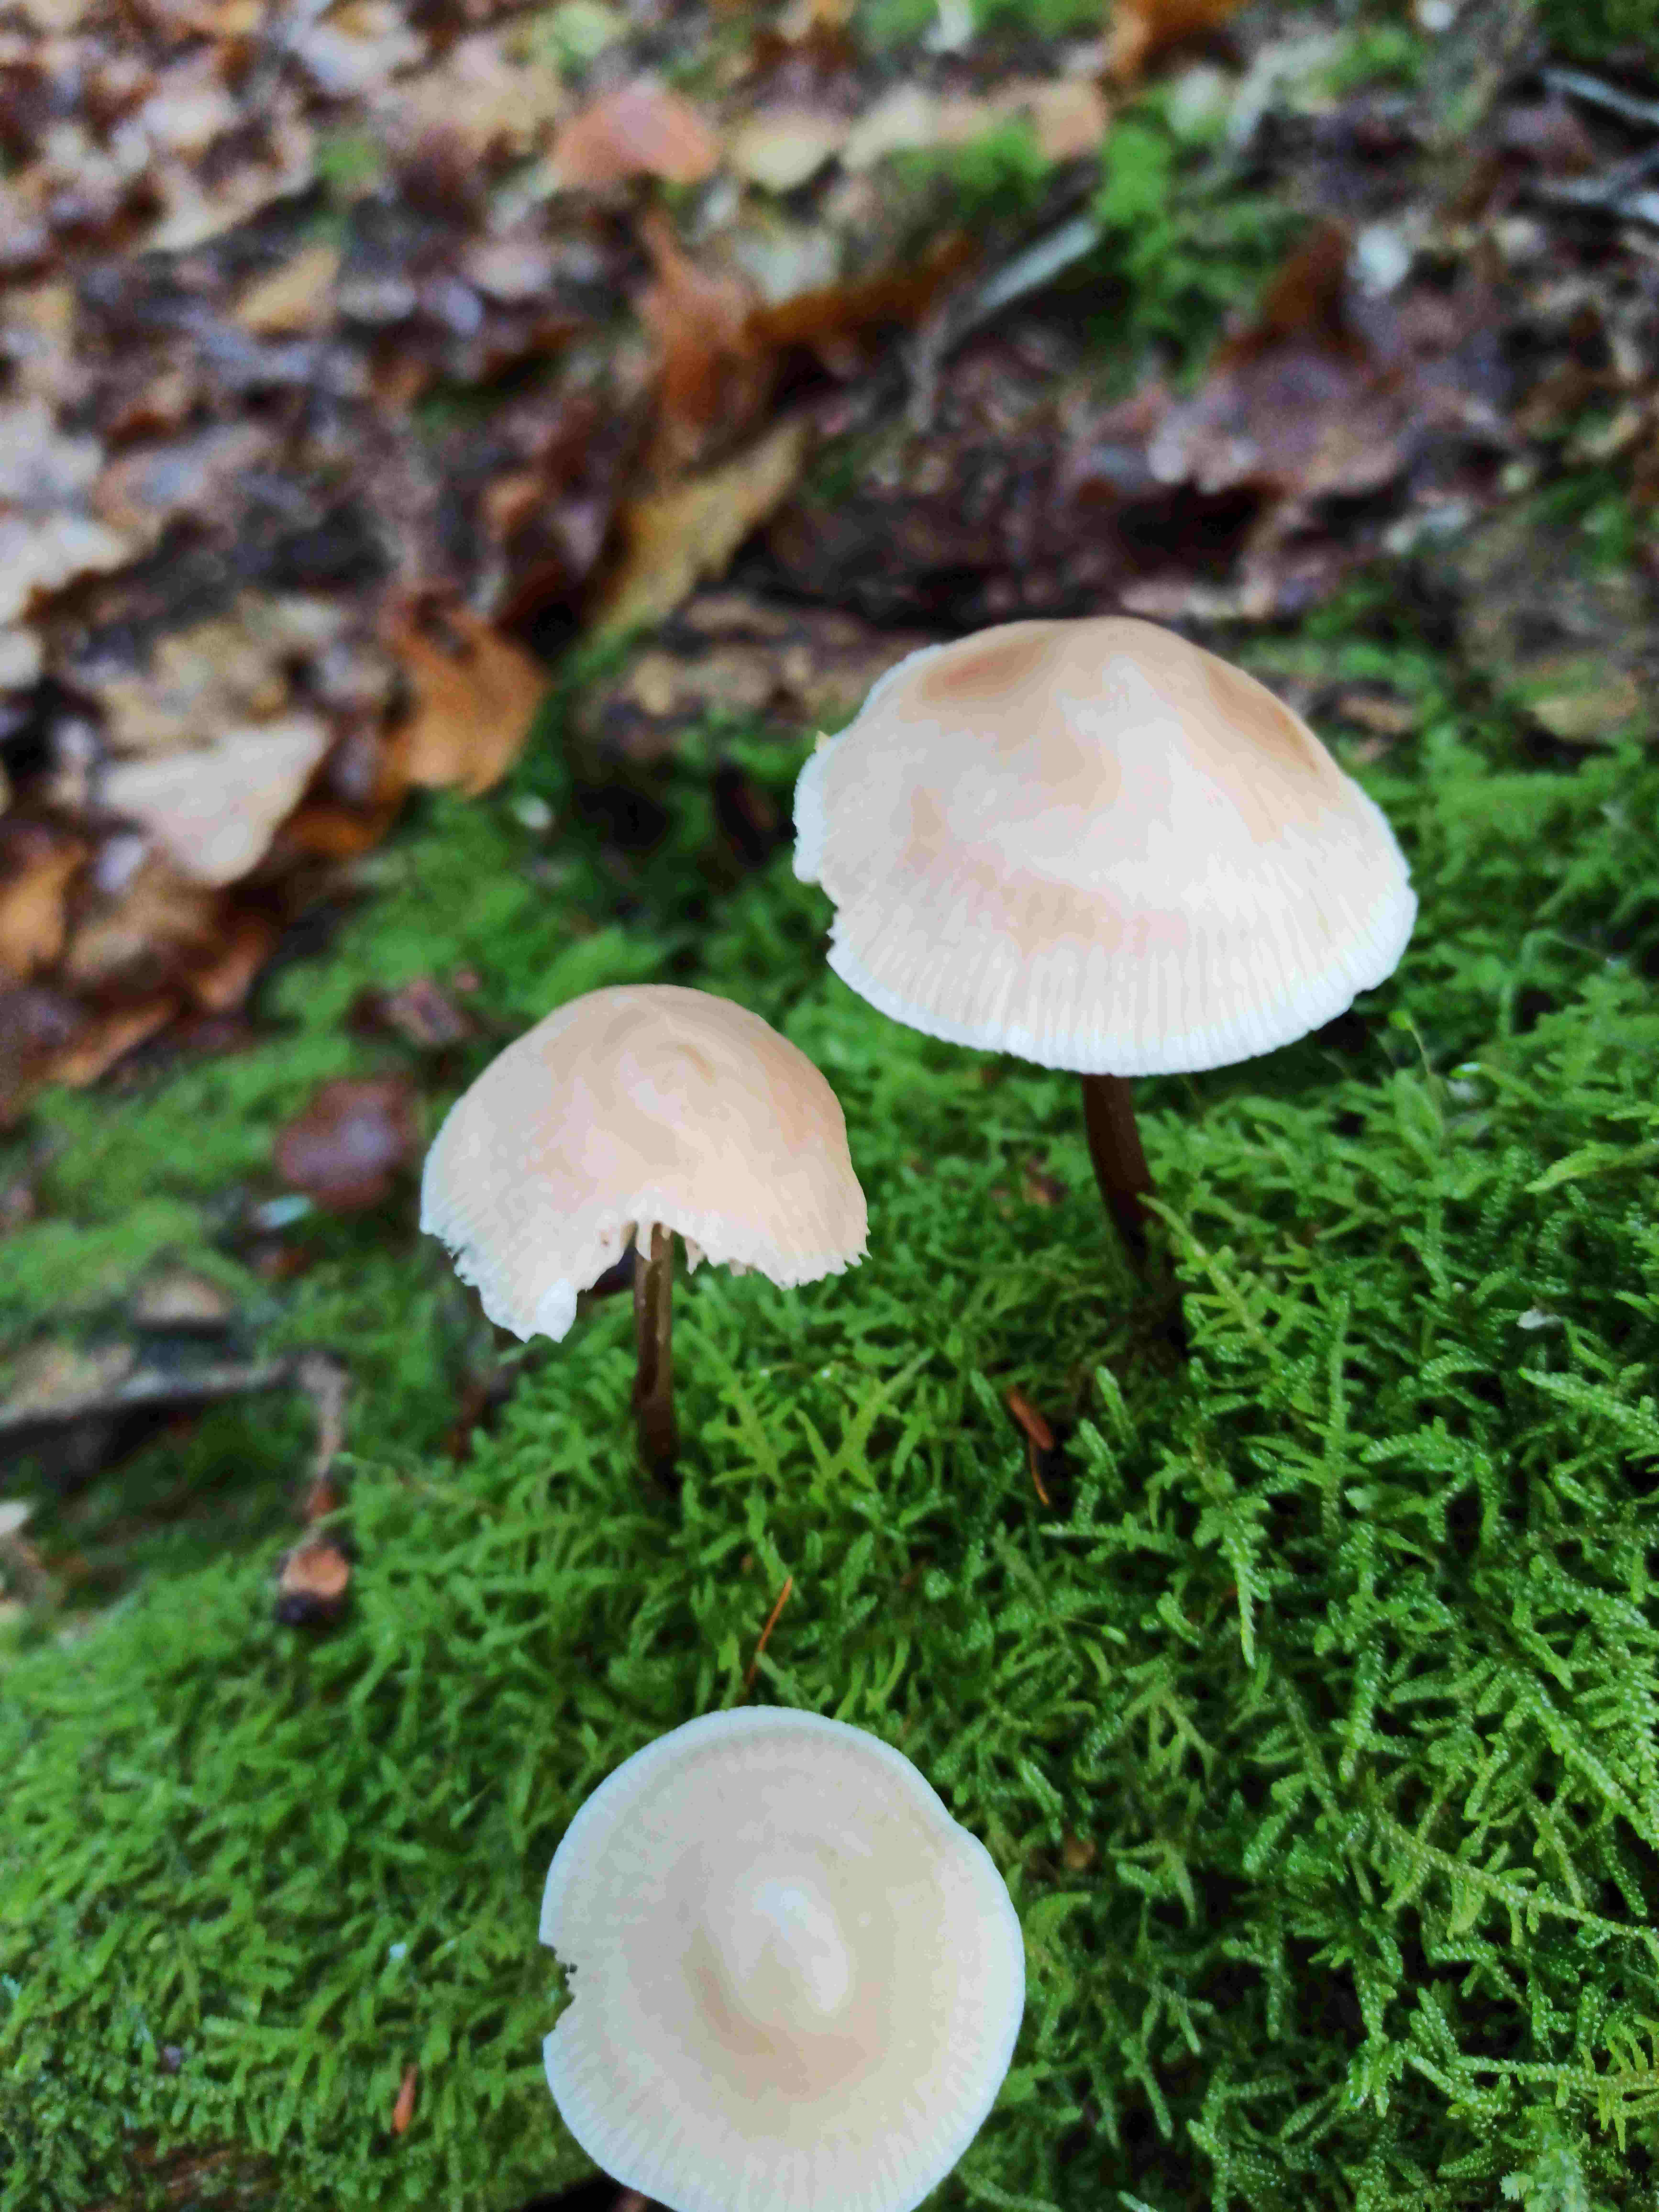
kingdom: Fungi
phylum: Basidiomycota
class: Agaricomycetes
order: Agaricales
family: Mycenaceae
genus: Mycena
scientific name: Mycena
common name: huesvamp
